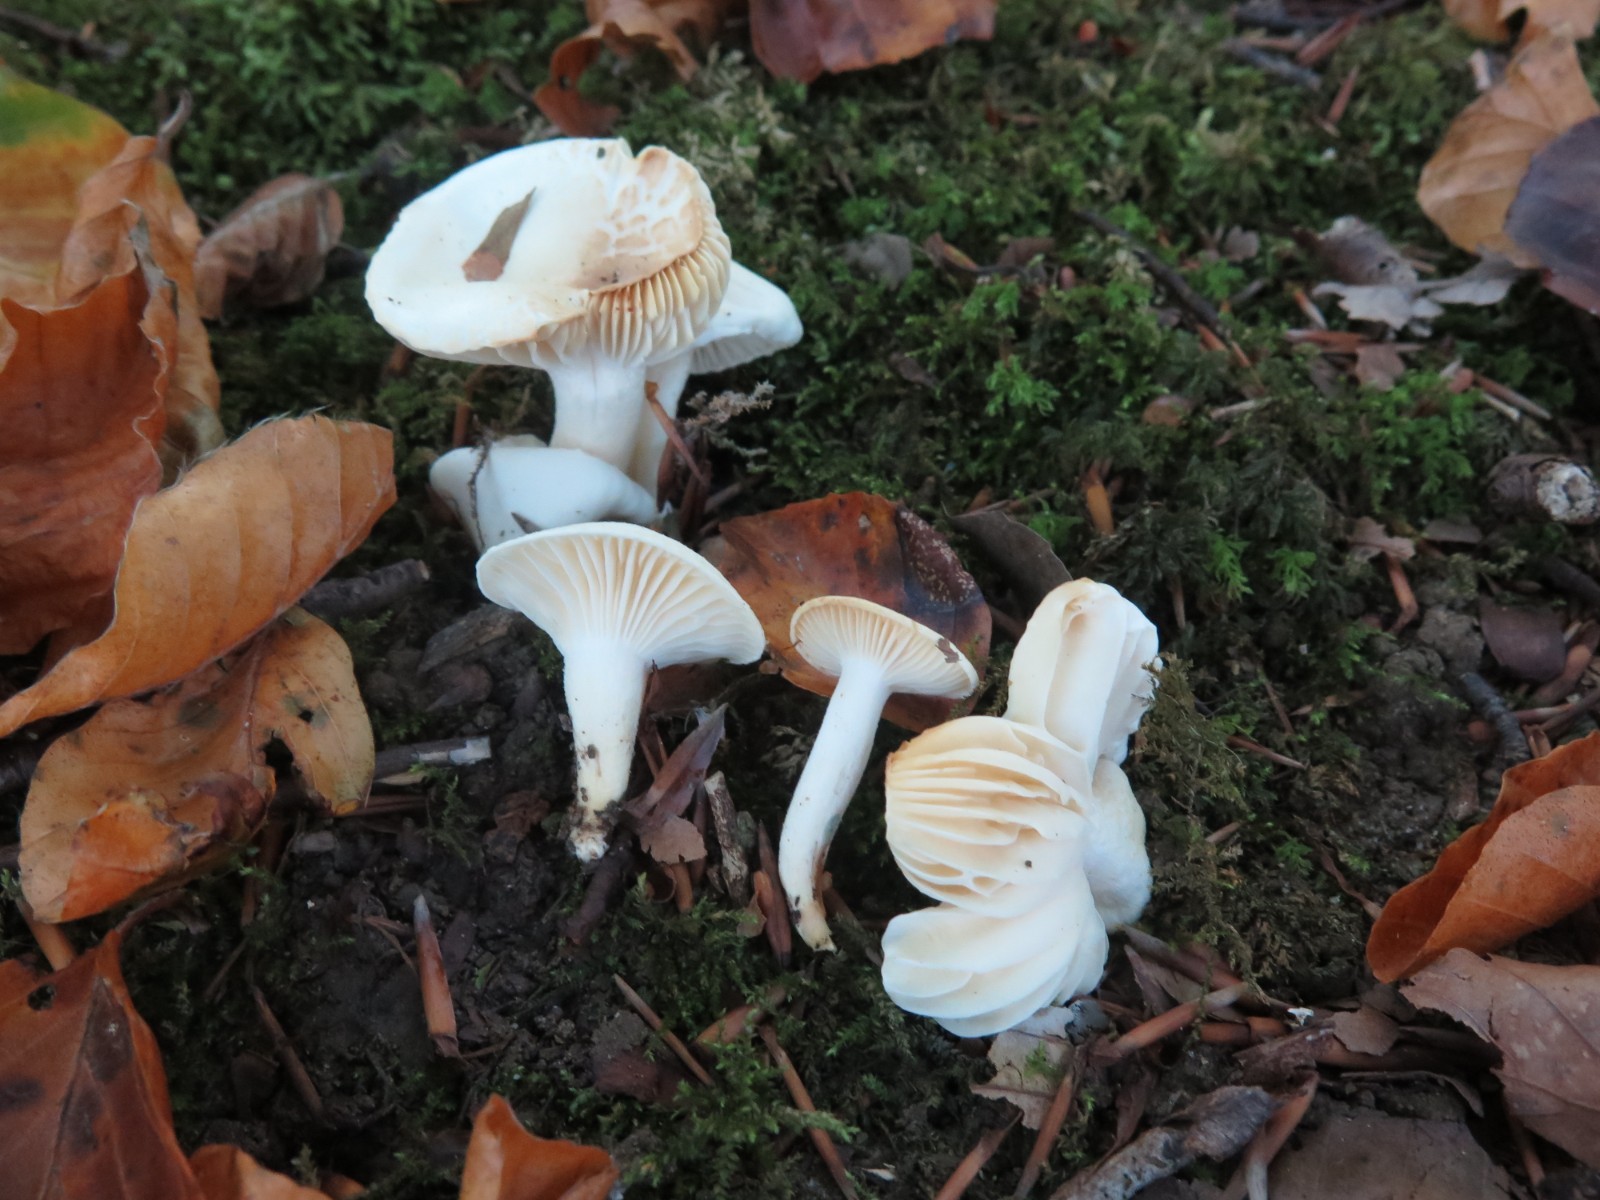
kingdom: Fungi
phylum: Basidiomycota
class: Agaricomycetes
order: Agaricales
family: Hygrophoraceae
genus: Hygrophorus
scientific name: Hygrophorus eburneus
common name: elfenbens-sneglehat
